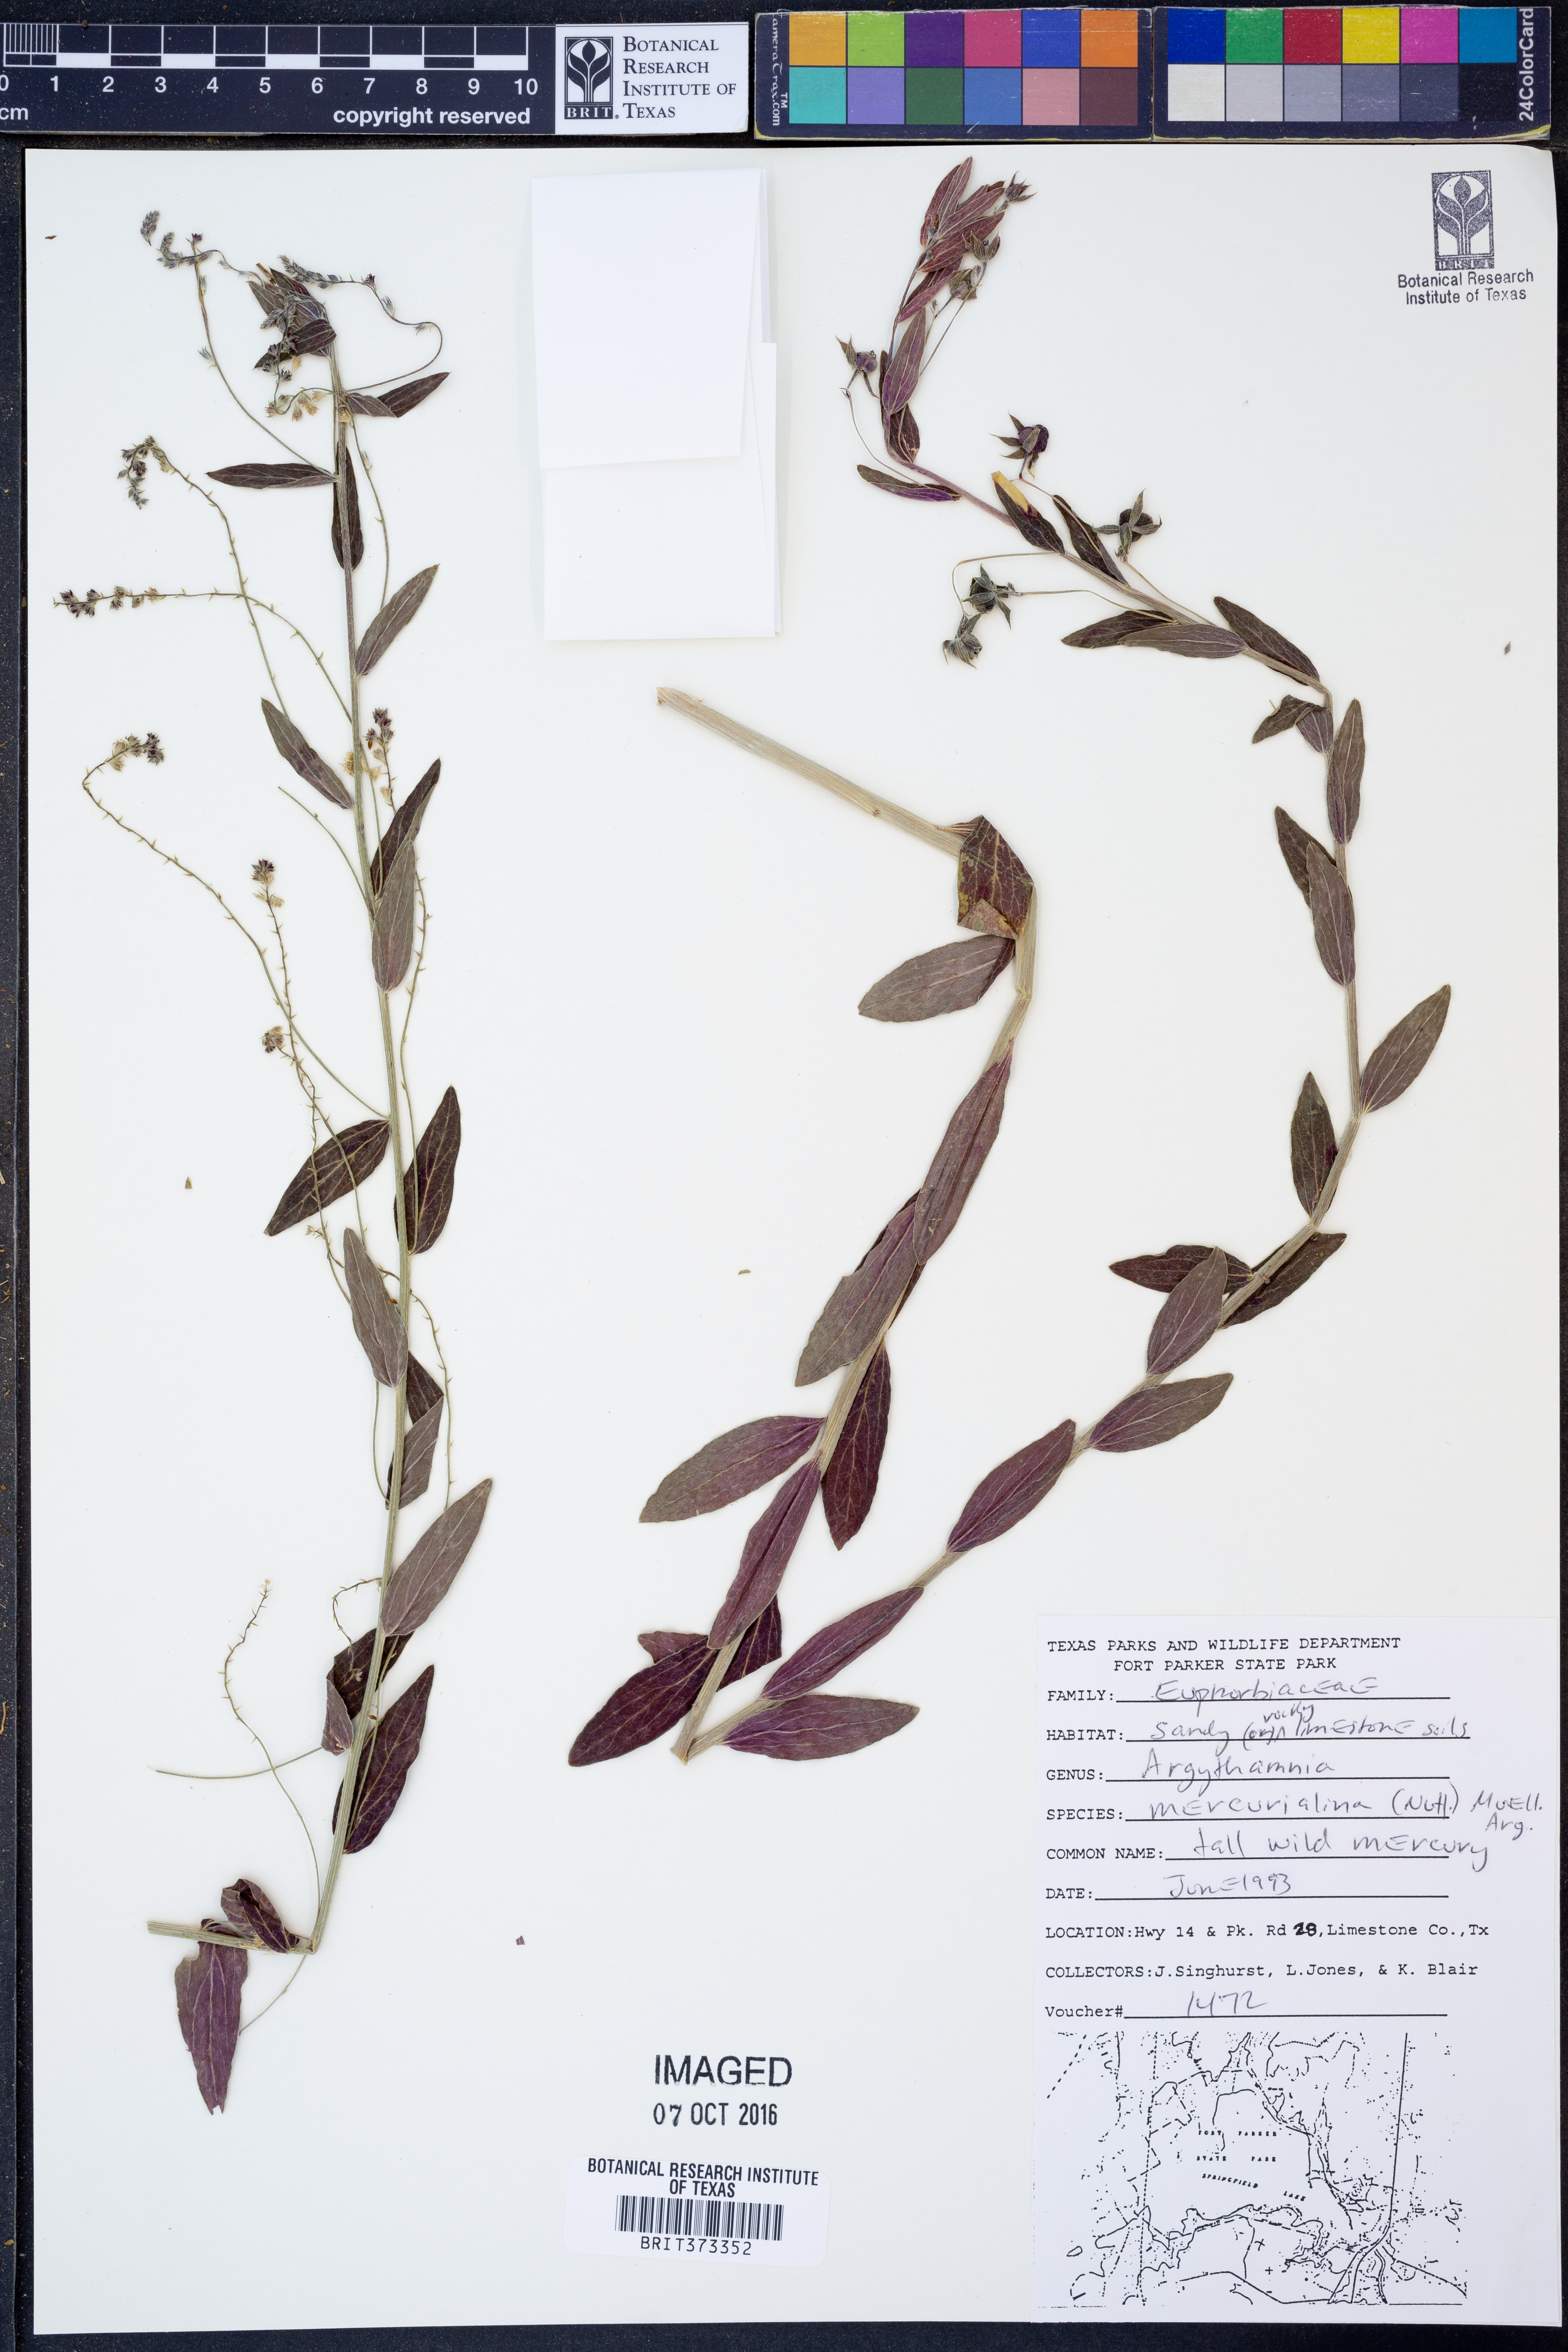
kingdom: Plantae
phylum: Tracheophyta
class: Magnoliopsida
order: Malpighiales
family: Euphorbiaceae
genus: Ditaxis
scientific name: Ditaxis mercurialina
